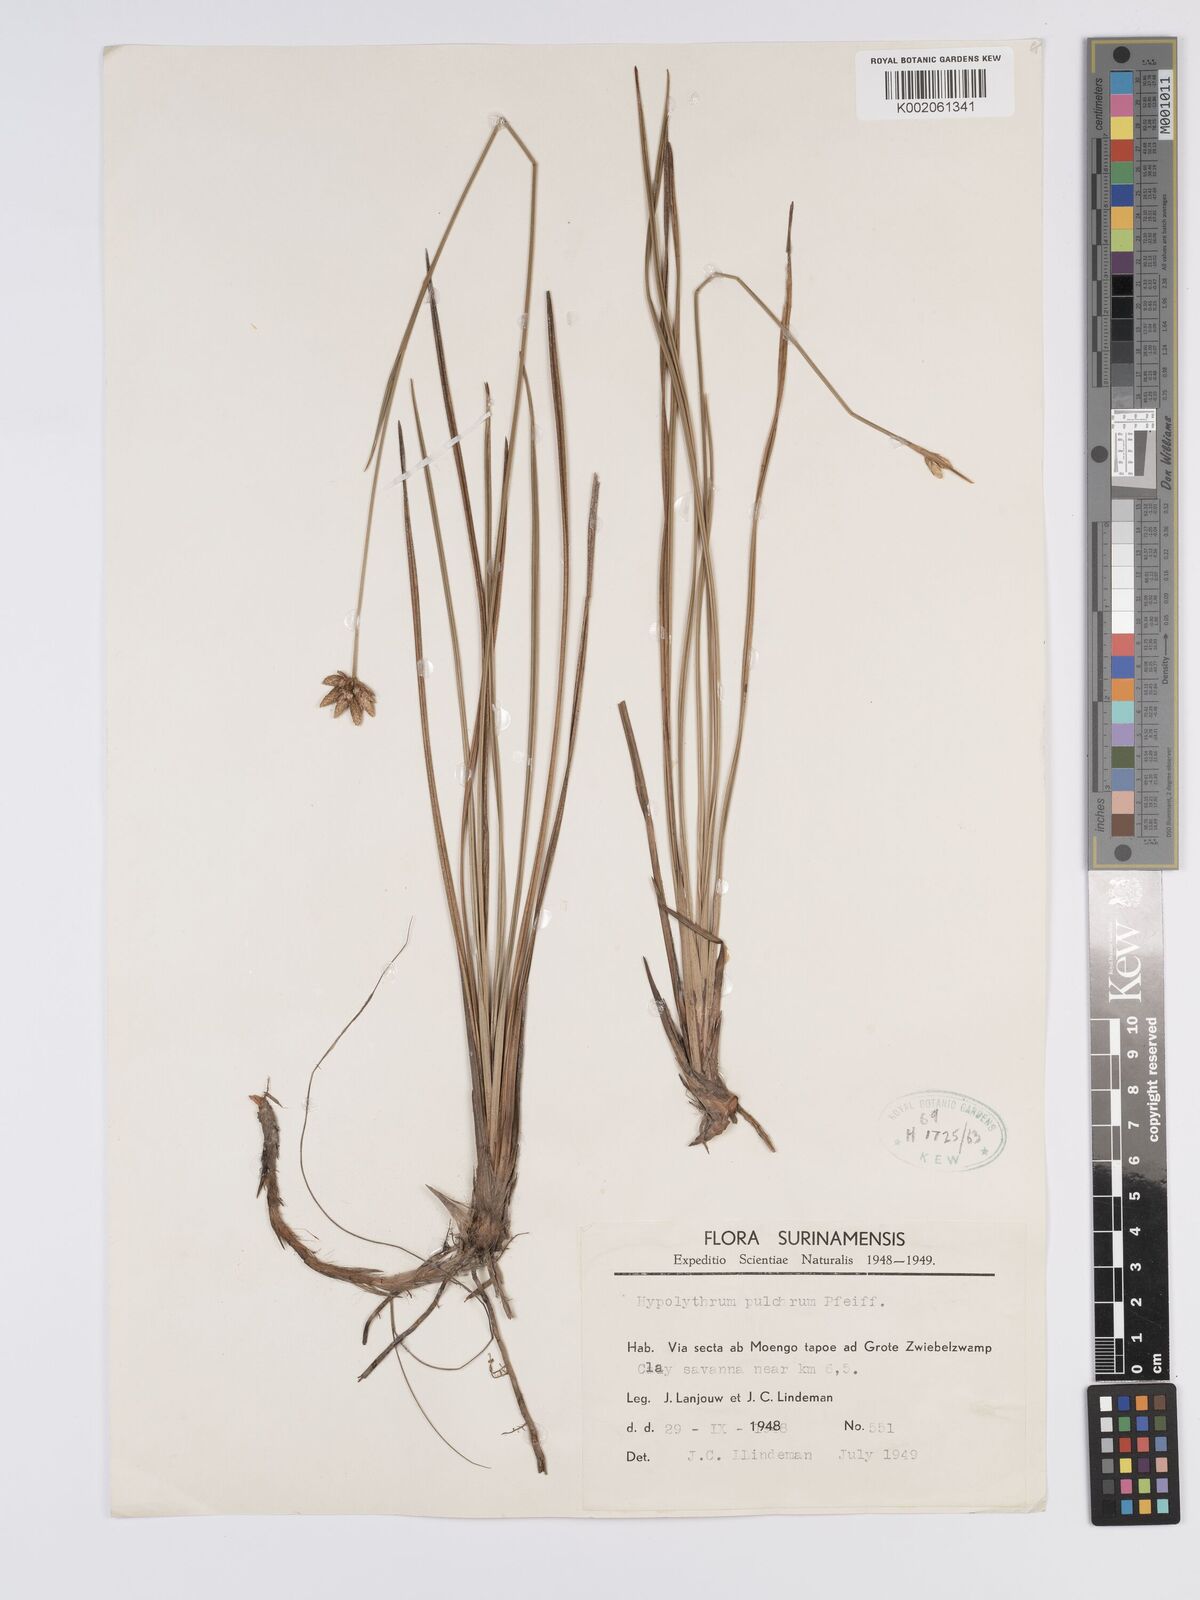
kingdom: Plantae
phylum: Tracheophyta
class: Liliopsida
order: Poales
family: Cyperaceae
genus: Hypolytrum
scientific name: Hypolytrum pulchrum
